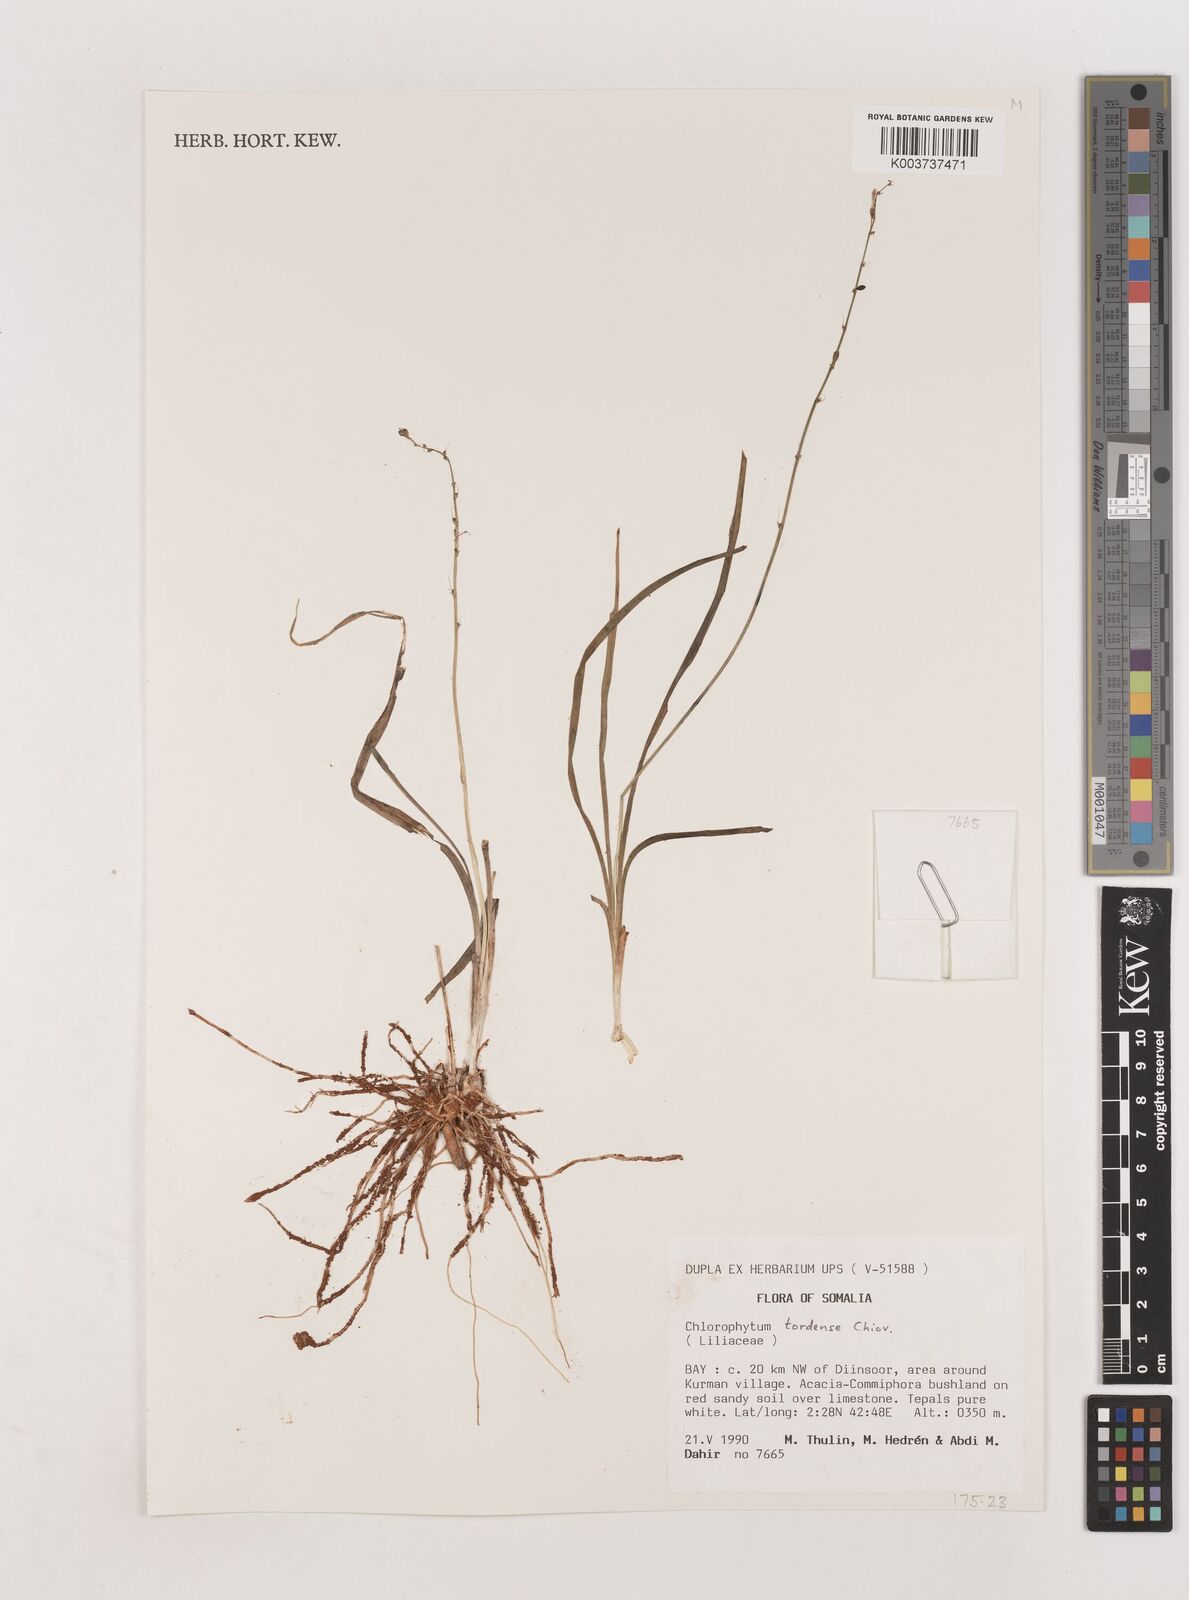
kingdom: Plantae
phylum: Tracheophyta
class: Liliopsida
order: Asparagales
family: Asparagaceae
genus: Chlorophytum
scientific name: Chlorophytum tordense
